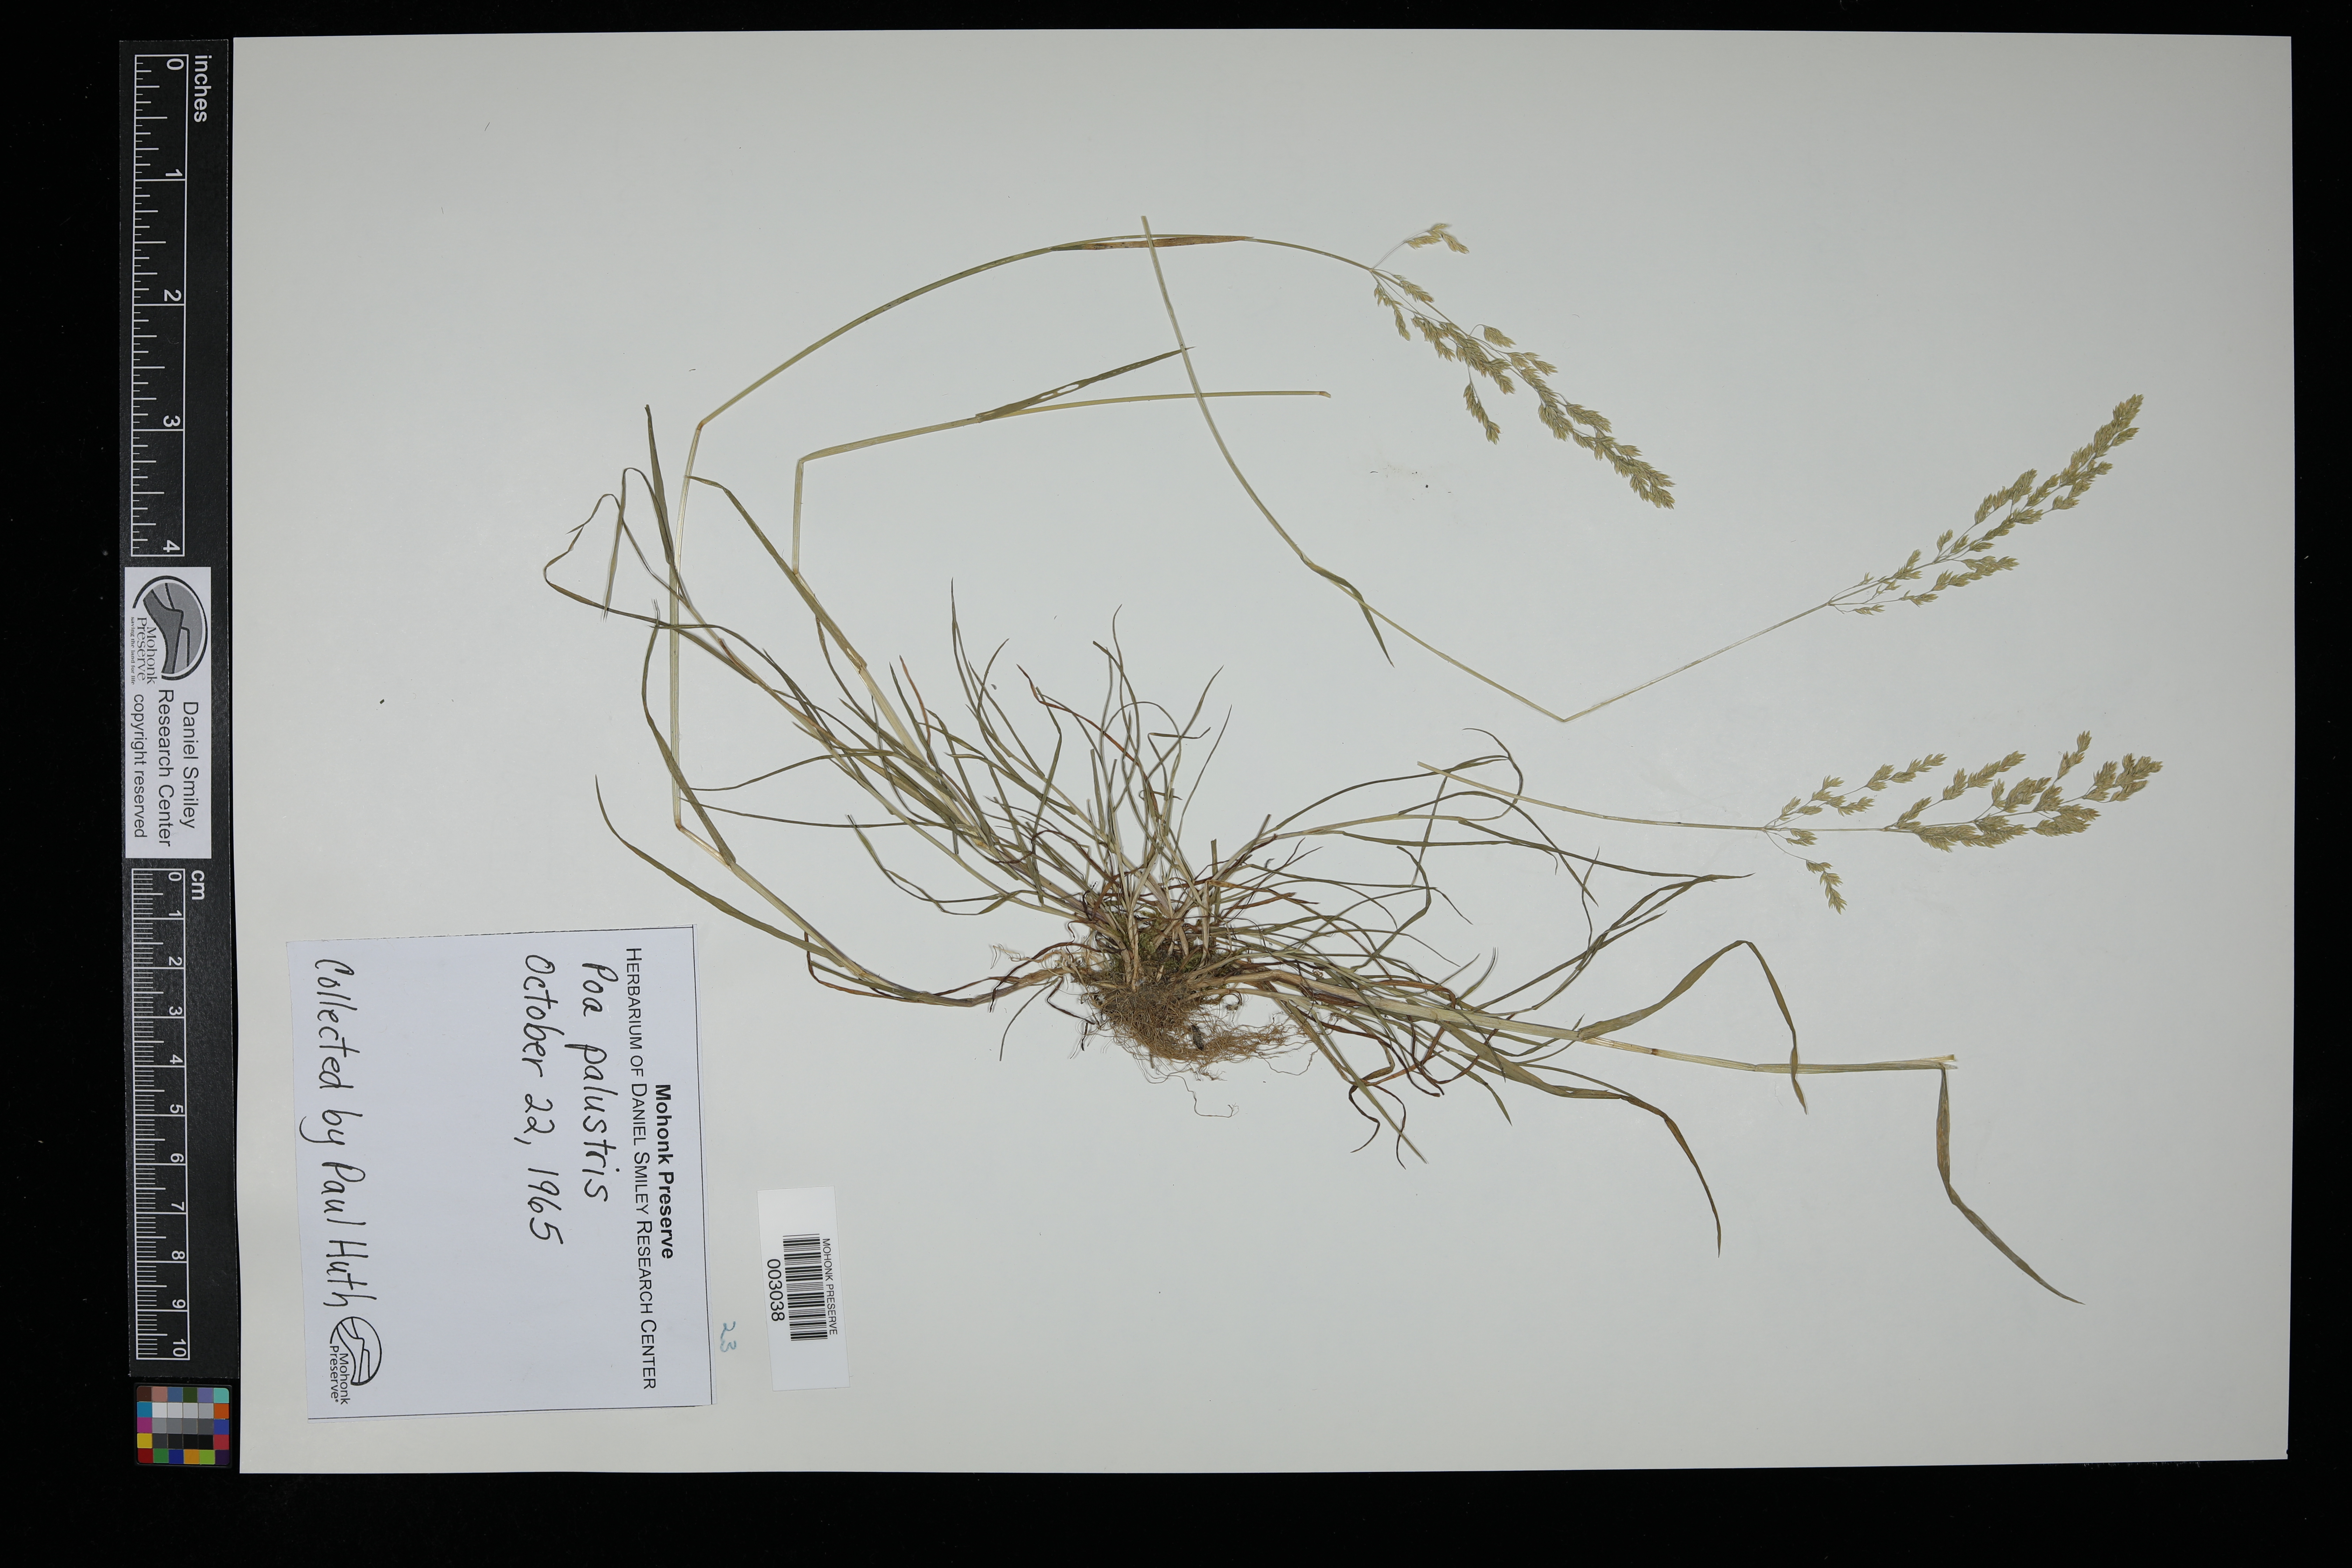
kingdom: Plantae
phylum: Tracheophyta
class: Liliopsida
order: Poales
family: Poaceae
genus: Poa
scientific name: Poa palustris
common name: Swamp meadow-grass
